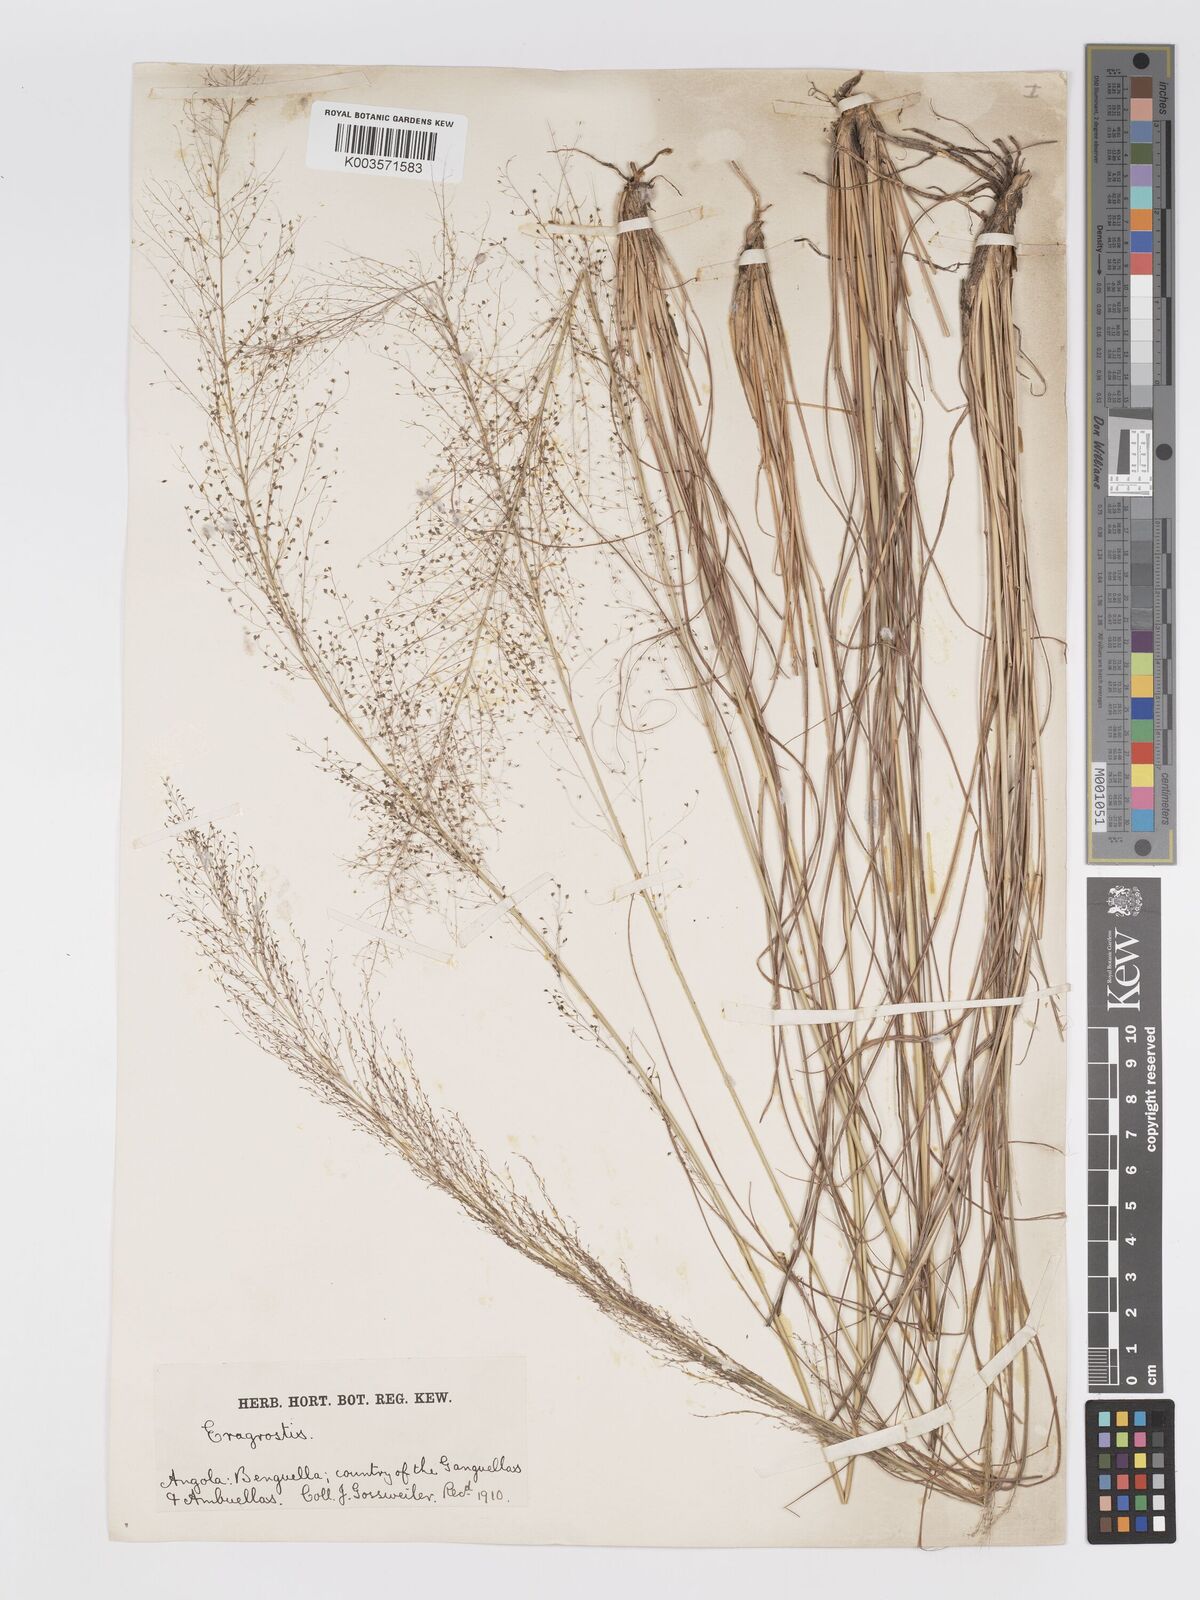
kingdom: Plantae
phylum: Tracheophyta
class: Liliopsida
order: Poales
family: Poaceae
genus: Eragrostis
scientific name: Eragrostis habrantha
